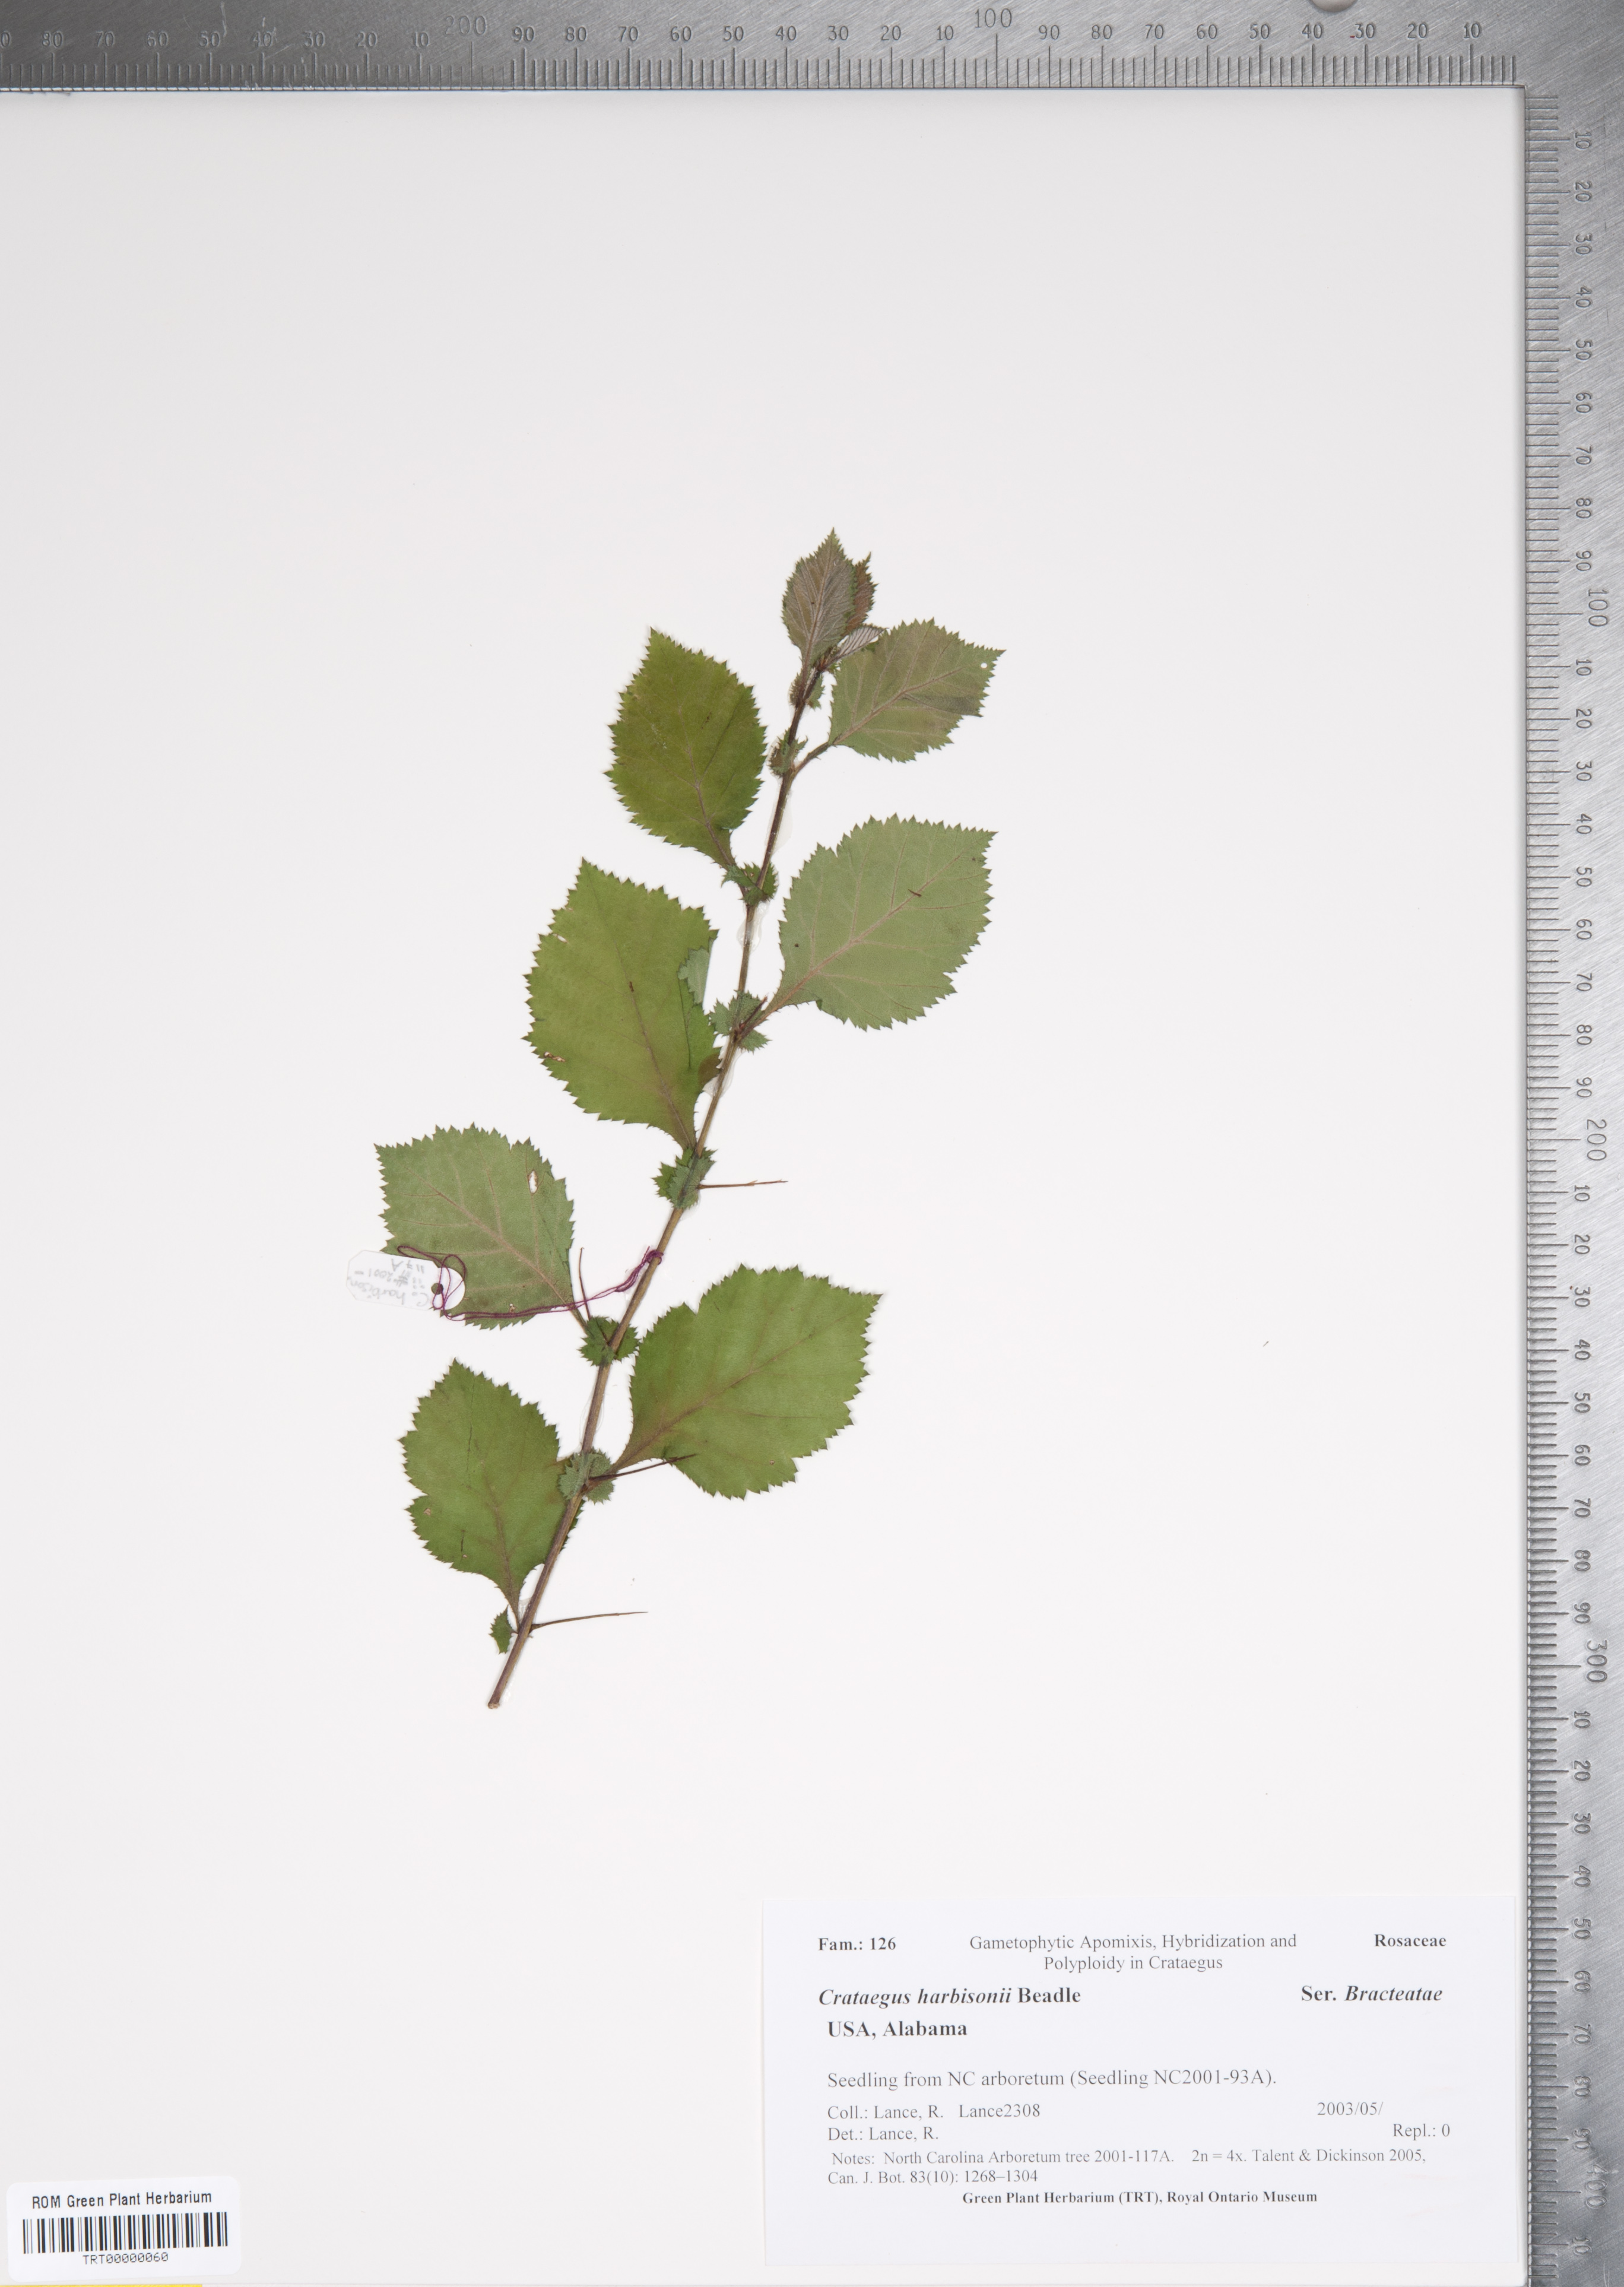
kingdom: Plantae
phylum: Tracheophyta
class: Magnoliopsida
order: Rosales
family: Rosaceae
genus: Crataegus
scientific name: Crataegus harbisonii
